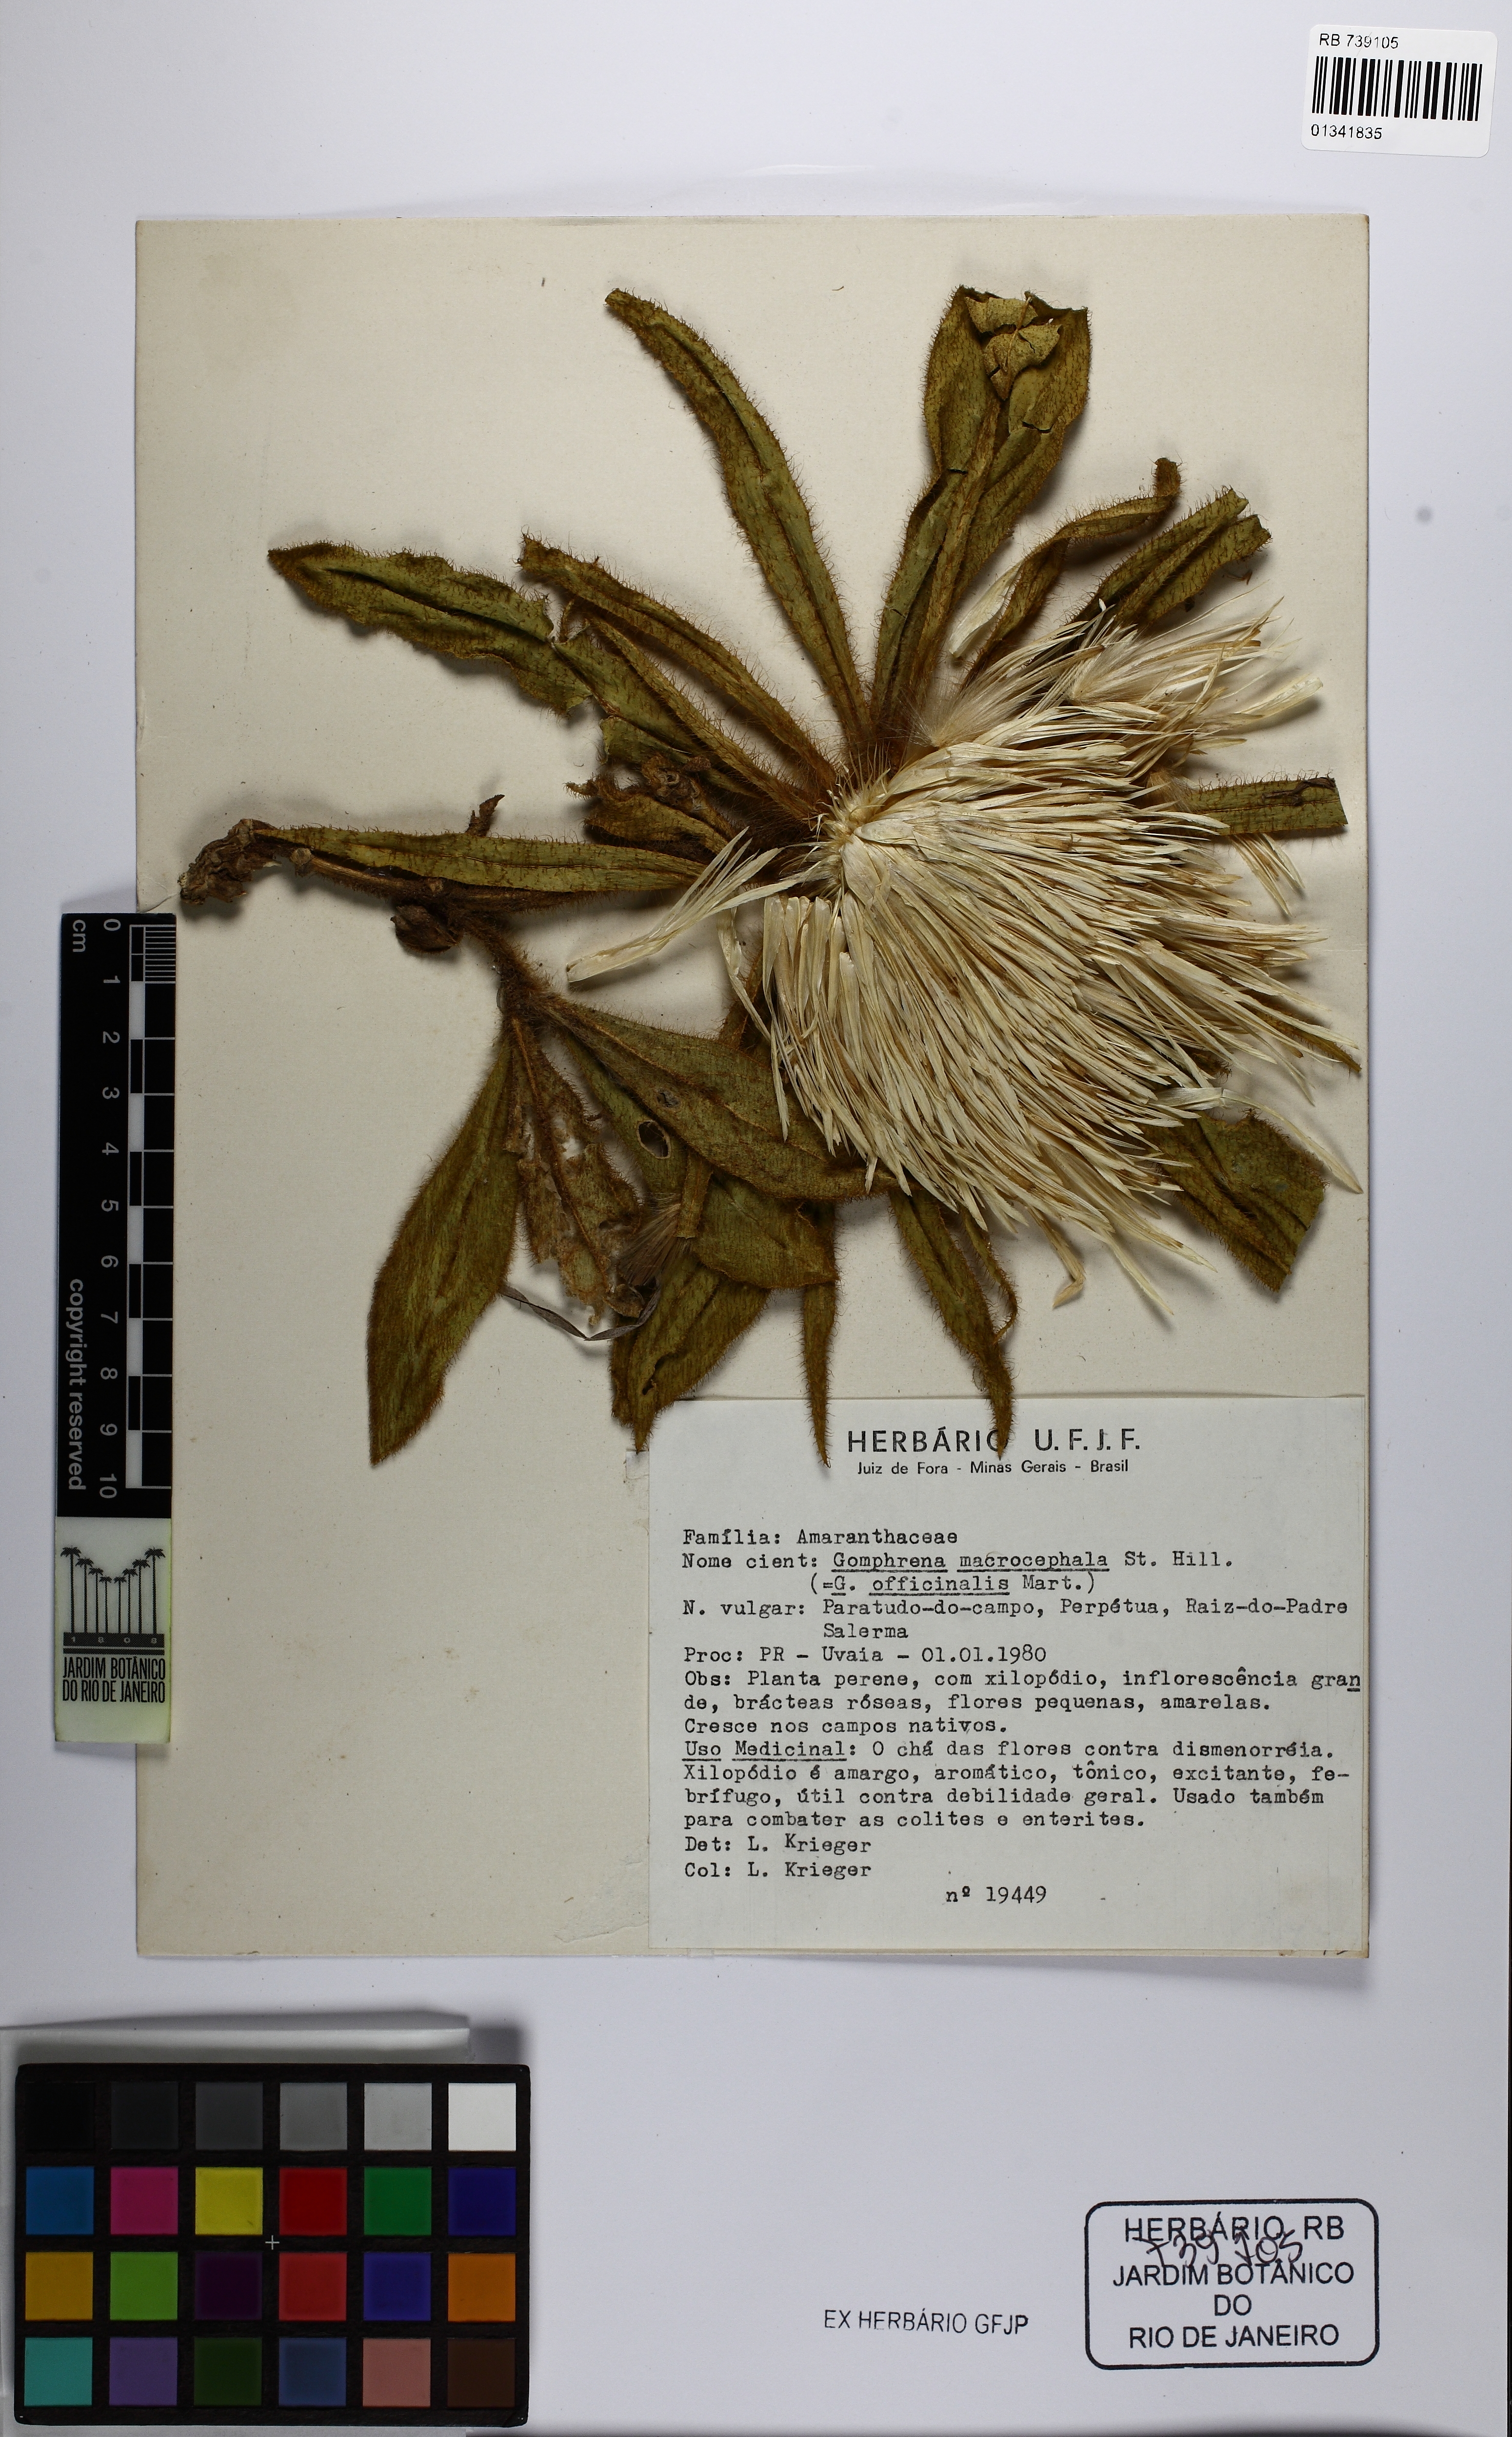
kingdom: Plantae
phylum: Tracheophyta
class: Magnoliopsida
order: Caryophyllales
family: Amaranthaceae
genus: Gomphrena
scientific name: Gomphrena macrocephala
